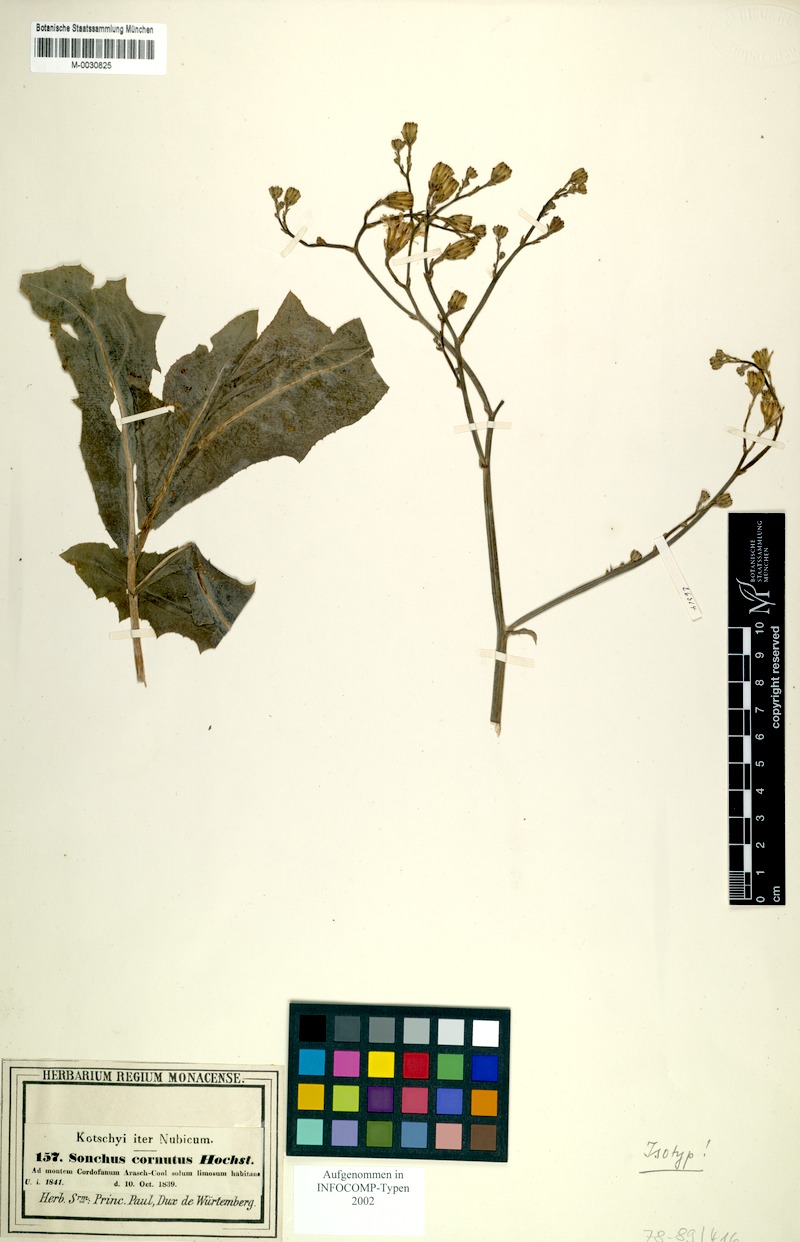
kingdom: Plantae
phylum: Tracheophyta
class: Magnoliopsida
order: Asterales
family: Asteraceae
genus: Launaea
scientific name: Launaea cornuta
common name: Bitter-lettuce
